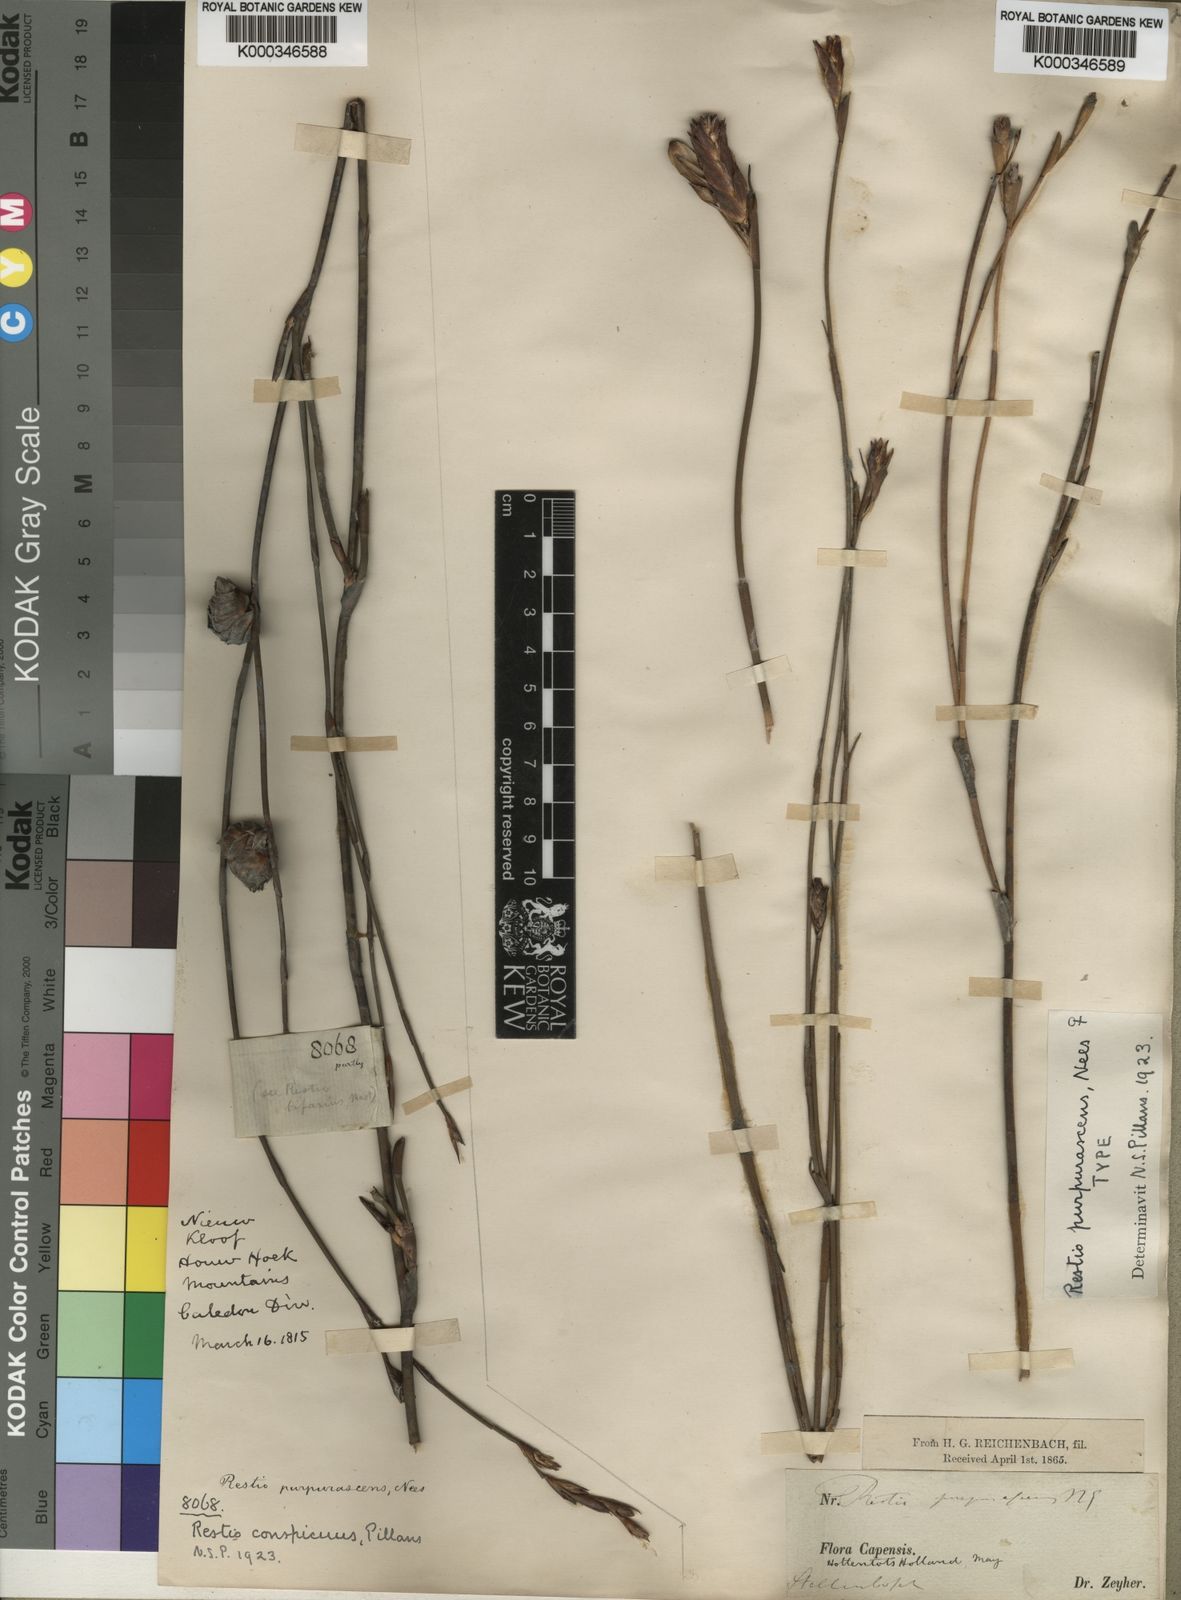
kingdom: Plantae
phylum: Tracheophyta
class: Liliopsida
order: Poales
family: Restionaceae
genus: Restio
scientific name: Restio purpurascens
